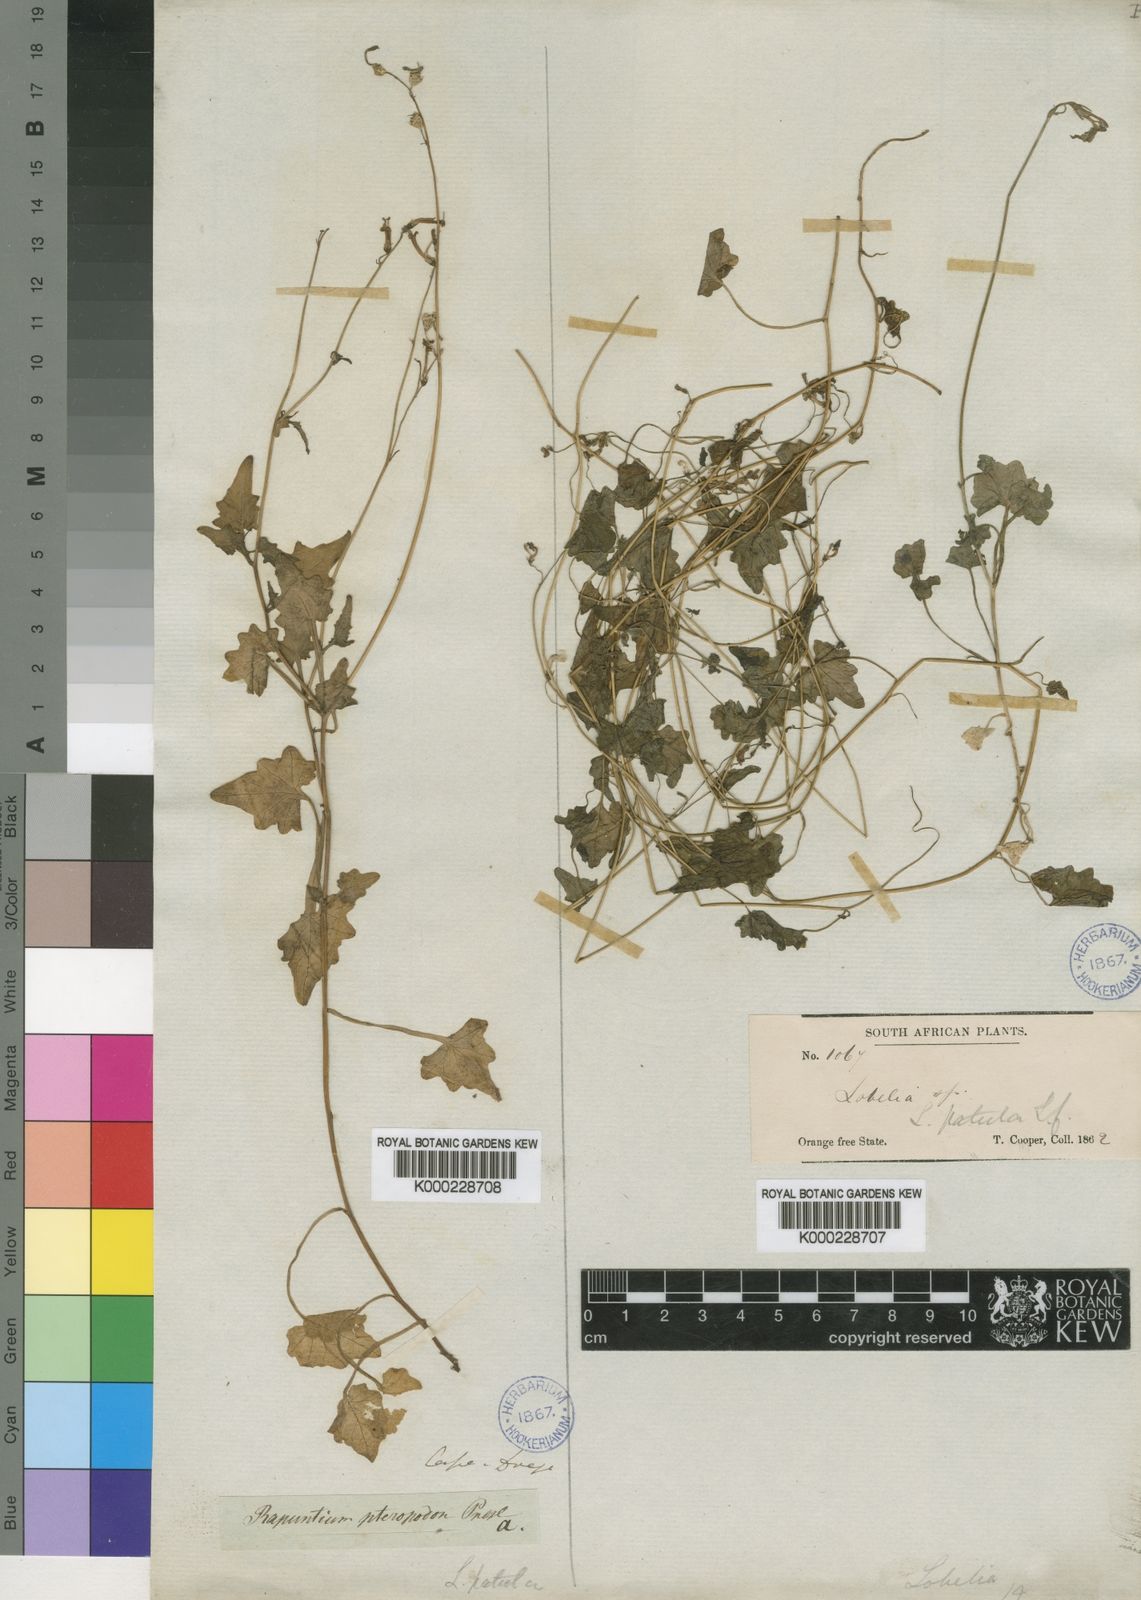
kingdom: Plantae
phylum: Tracheophyta
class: Magnoliopsida
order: Asterales
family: Campanulaceae
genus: Lobelia
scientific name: Lobelia patula
